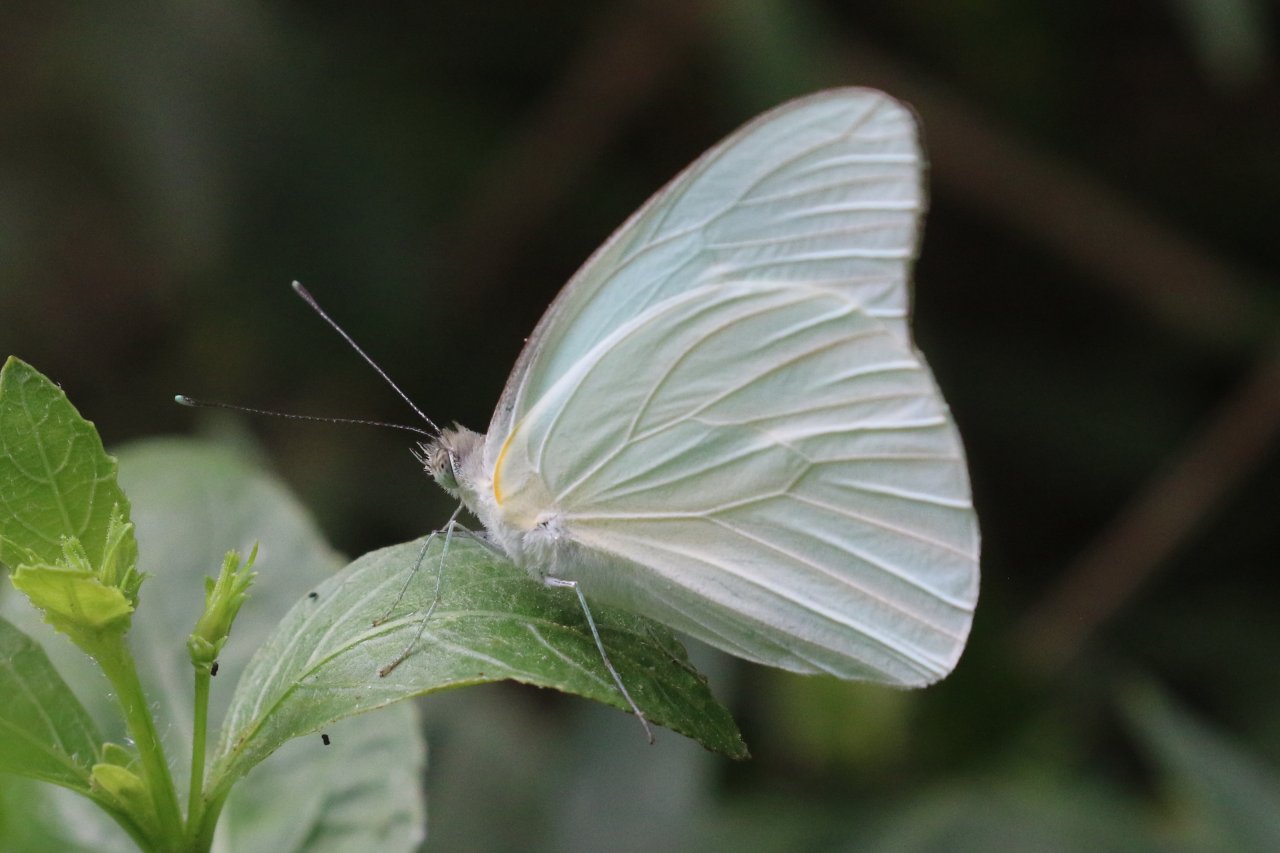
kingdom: Animalia
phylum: Arthropoda
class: Insecta
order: Lepidoptera
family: Pieridae
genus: Glutophrissa
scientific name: Glutophrissa drusilla
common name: Florida White
